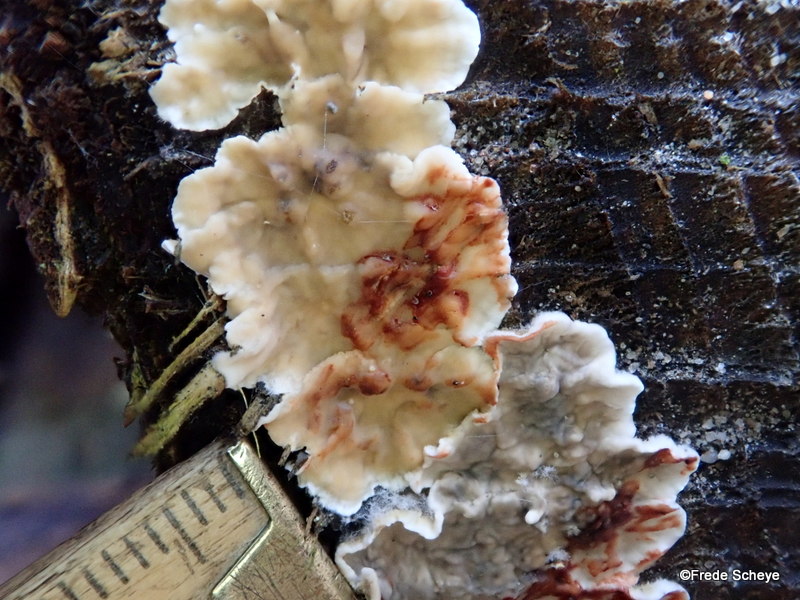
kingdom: Fungi
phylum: Basidiomycota
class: Agaricomycetes
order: Russulales
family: Stereaceae
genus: Stereum
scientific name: Stereum sanguinolentum
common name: blødende lædersvamp
